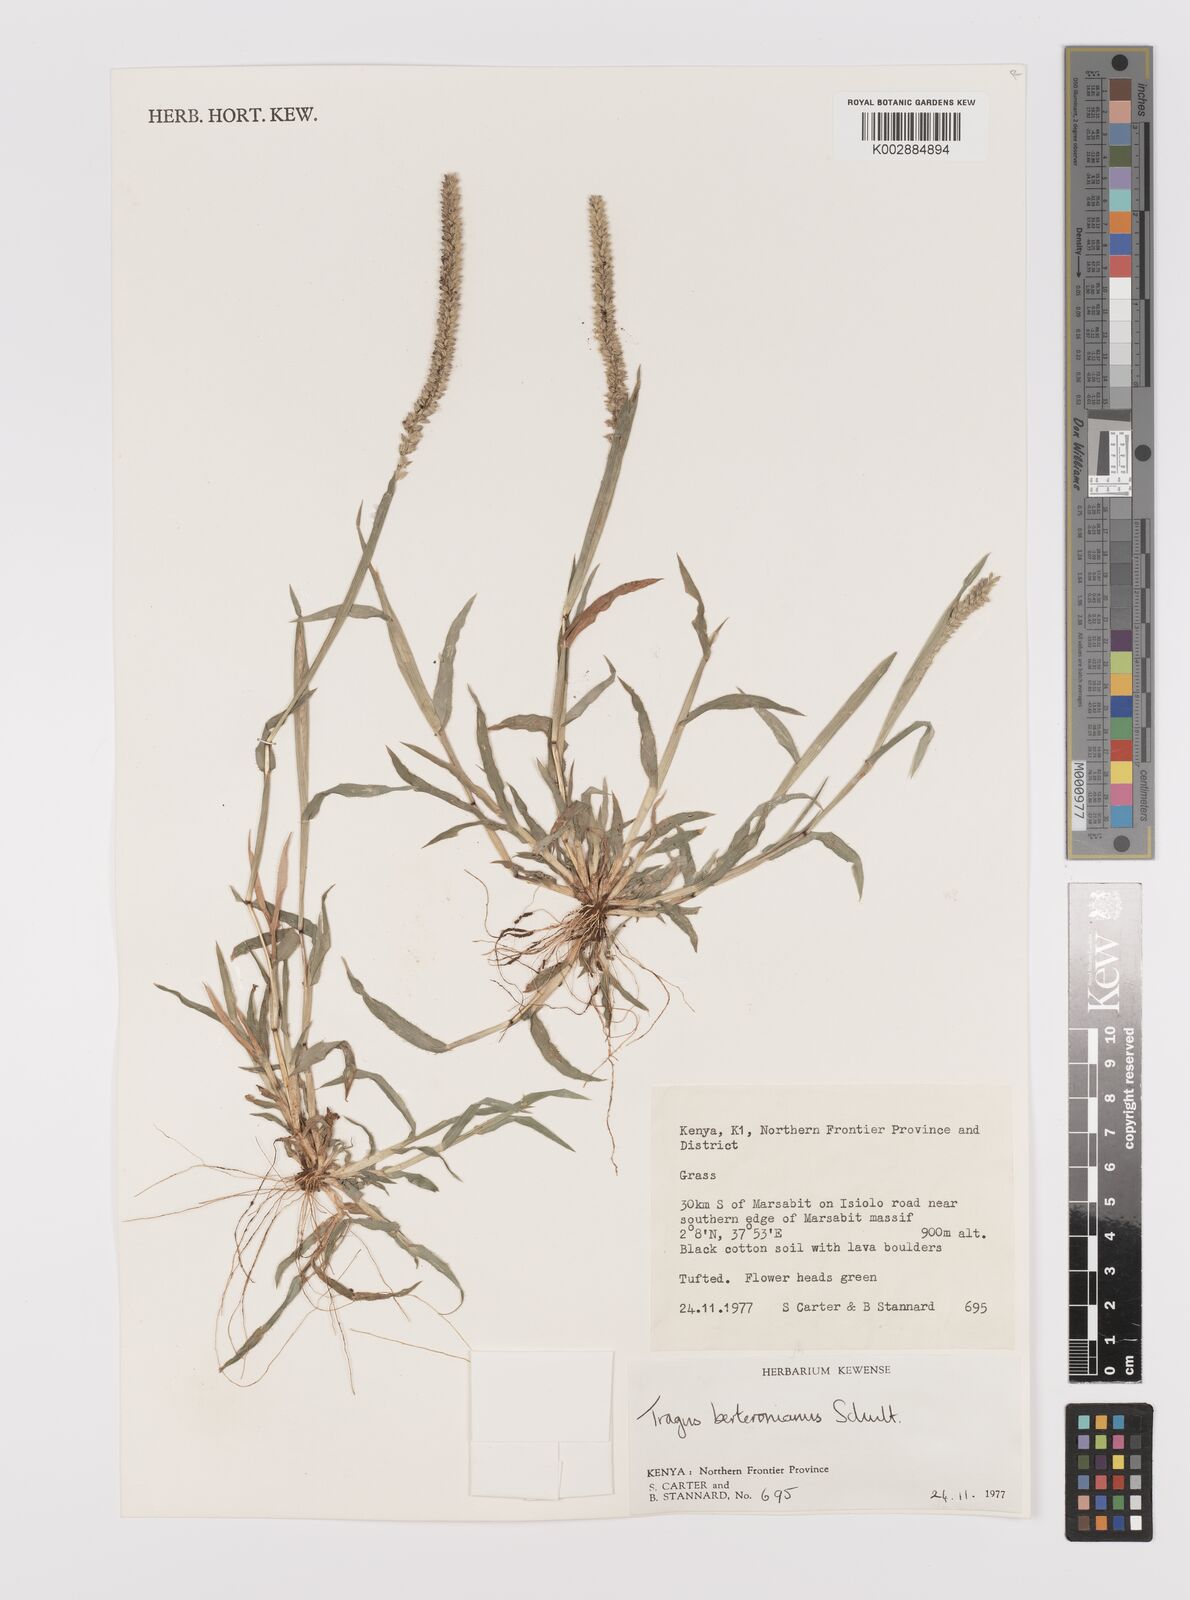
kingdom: Plantae
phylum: Tracheophyta
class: Liliopsida
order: Poales
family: Poaceae
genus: Tragus
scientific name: Tragus berteronianus
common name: African bur-grass
